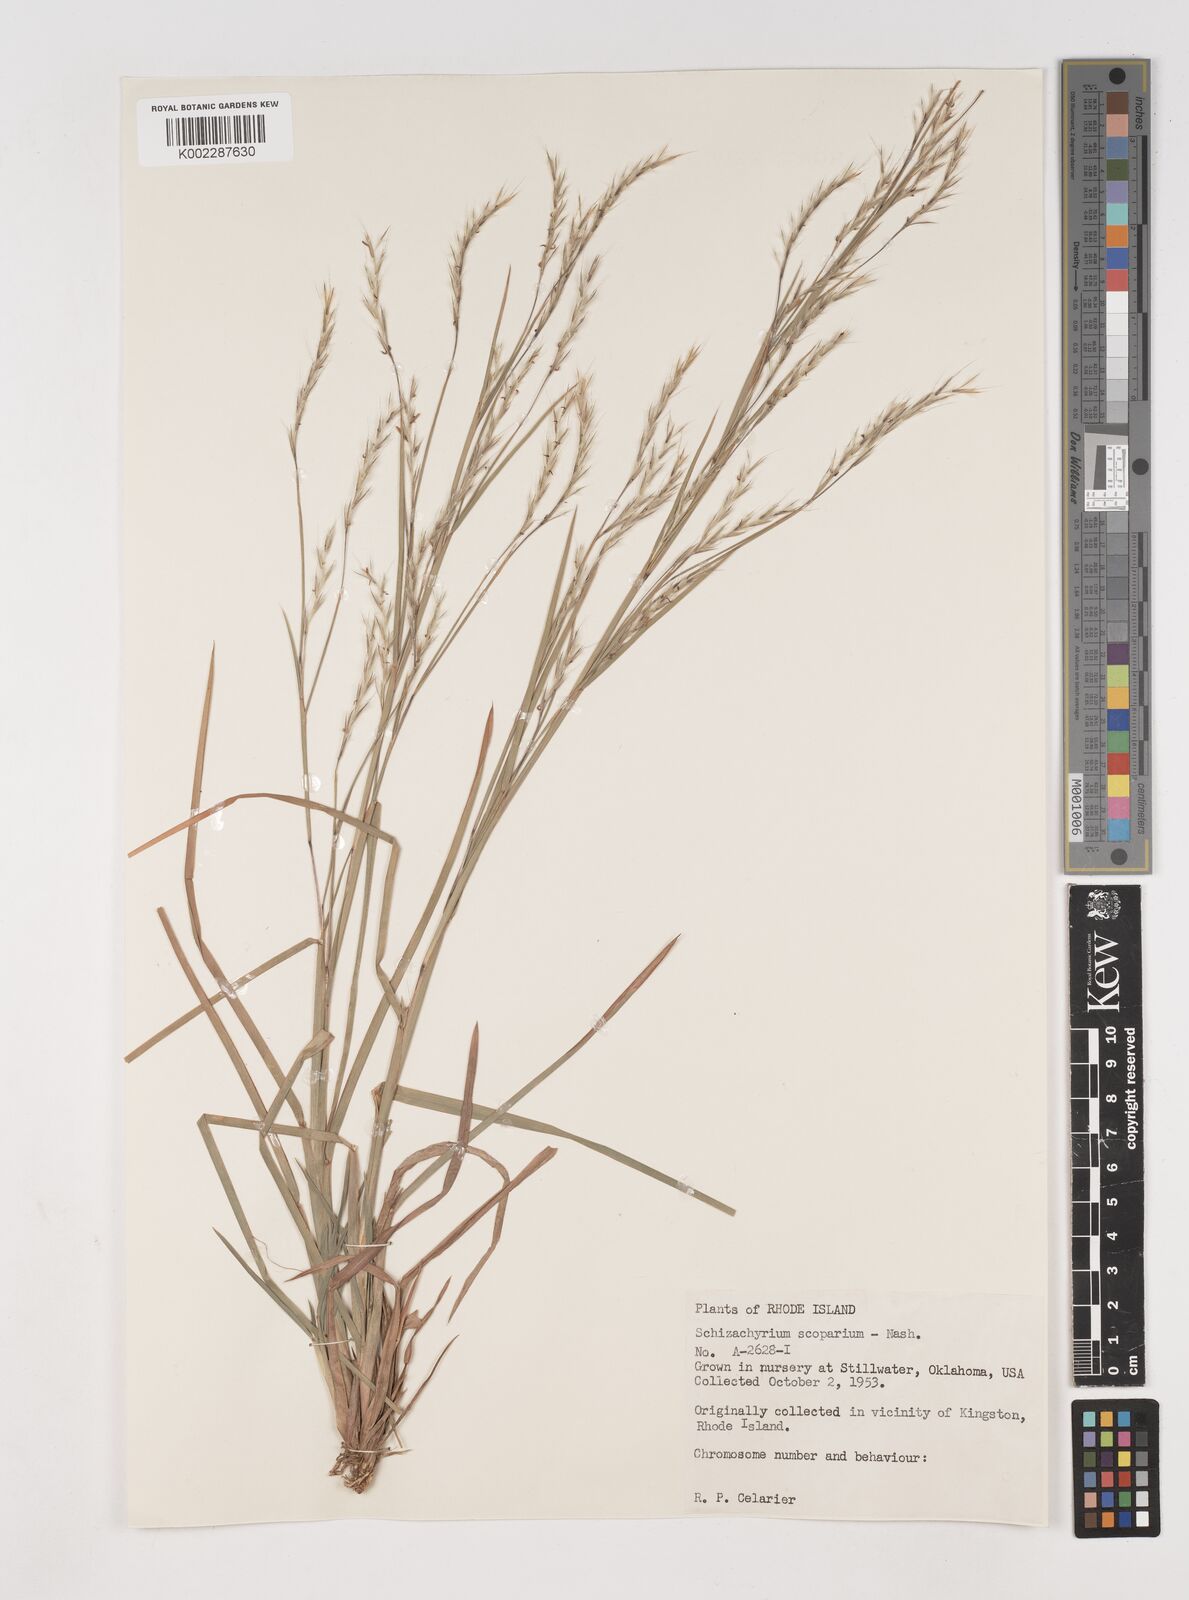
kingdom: Plantae
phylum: Tracheophyta
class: Liliopsida
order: Poales
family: Poaceae
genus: Schizachyrium
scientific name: Schizachyrium scoparium
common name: Little bluestem
